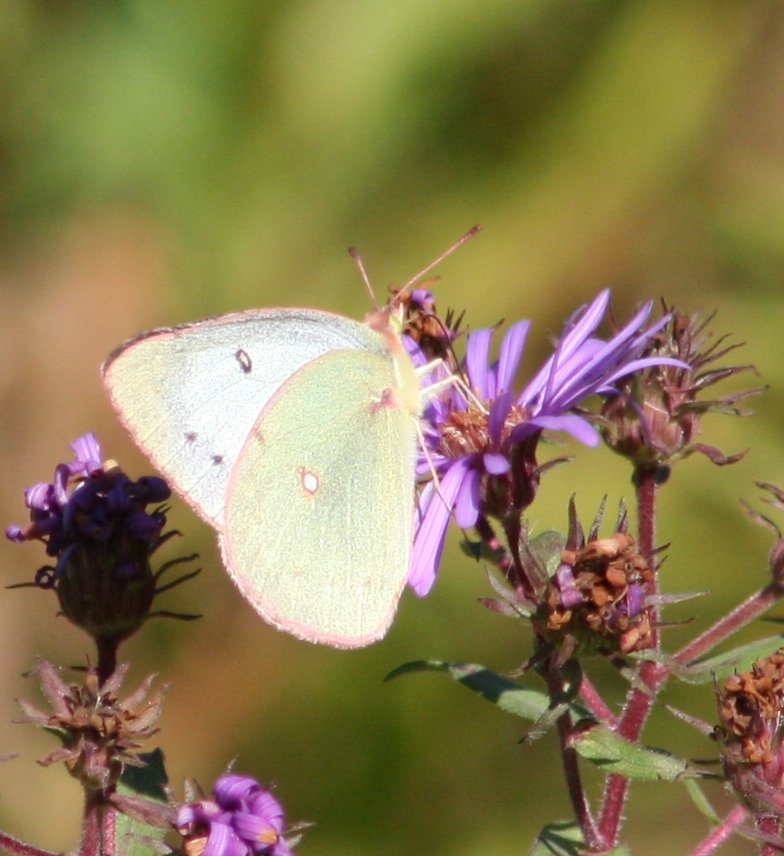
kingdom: Animalia
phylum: Arthropoda
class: Insecta
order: Lepidoptera
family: Pieridae
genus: Colias
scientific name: Colias philodice
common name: Clouded Sulphur
